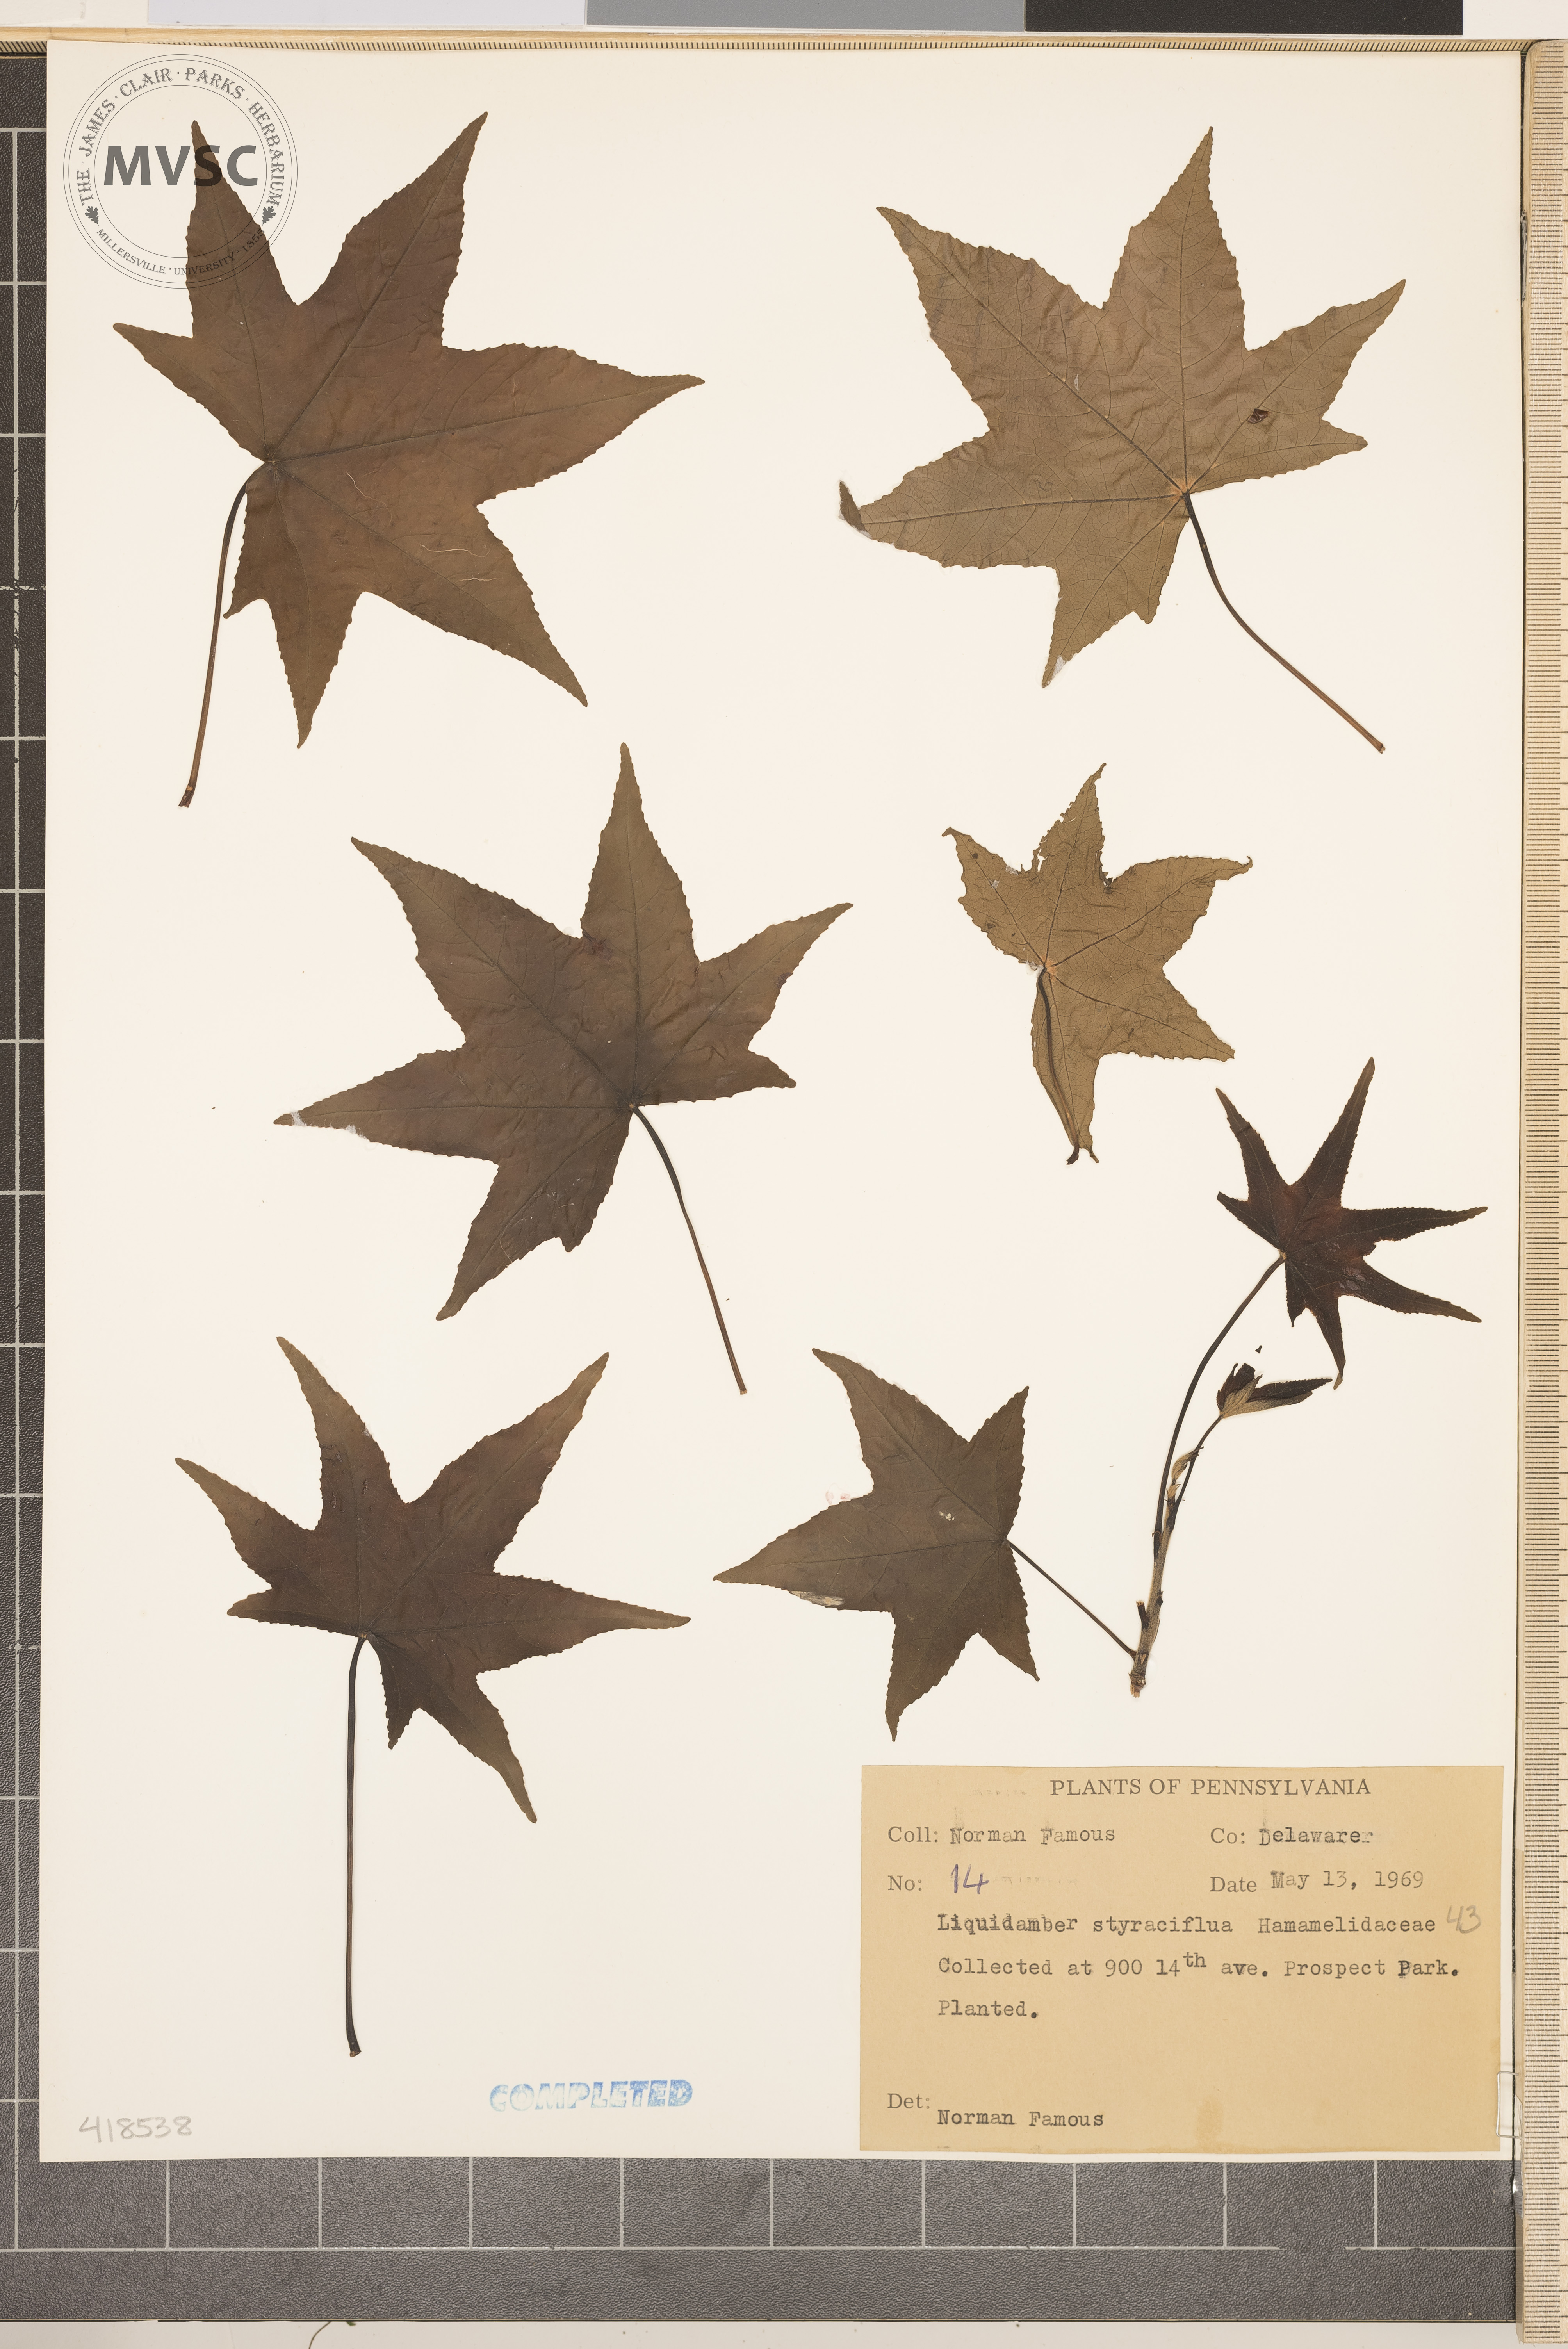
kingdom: Plantae
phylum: Tracheophyta
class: Magnoliopsida
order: Saxifragales
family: Altingiaceae
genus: Liquidambar
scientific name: Liquidambar styraciflua
